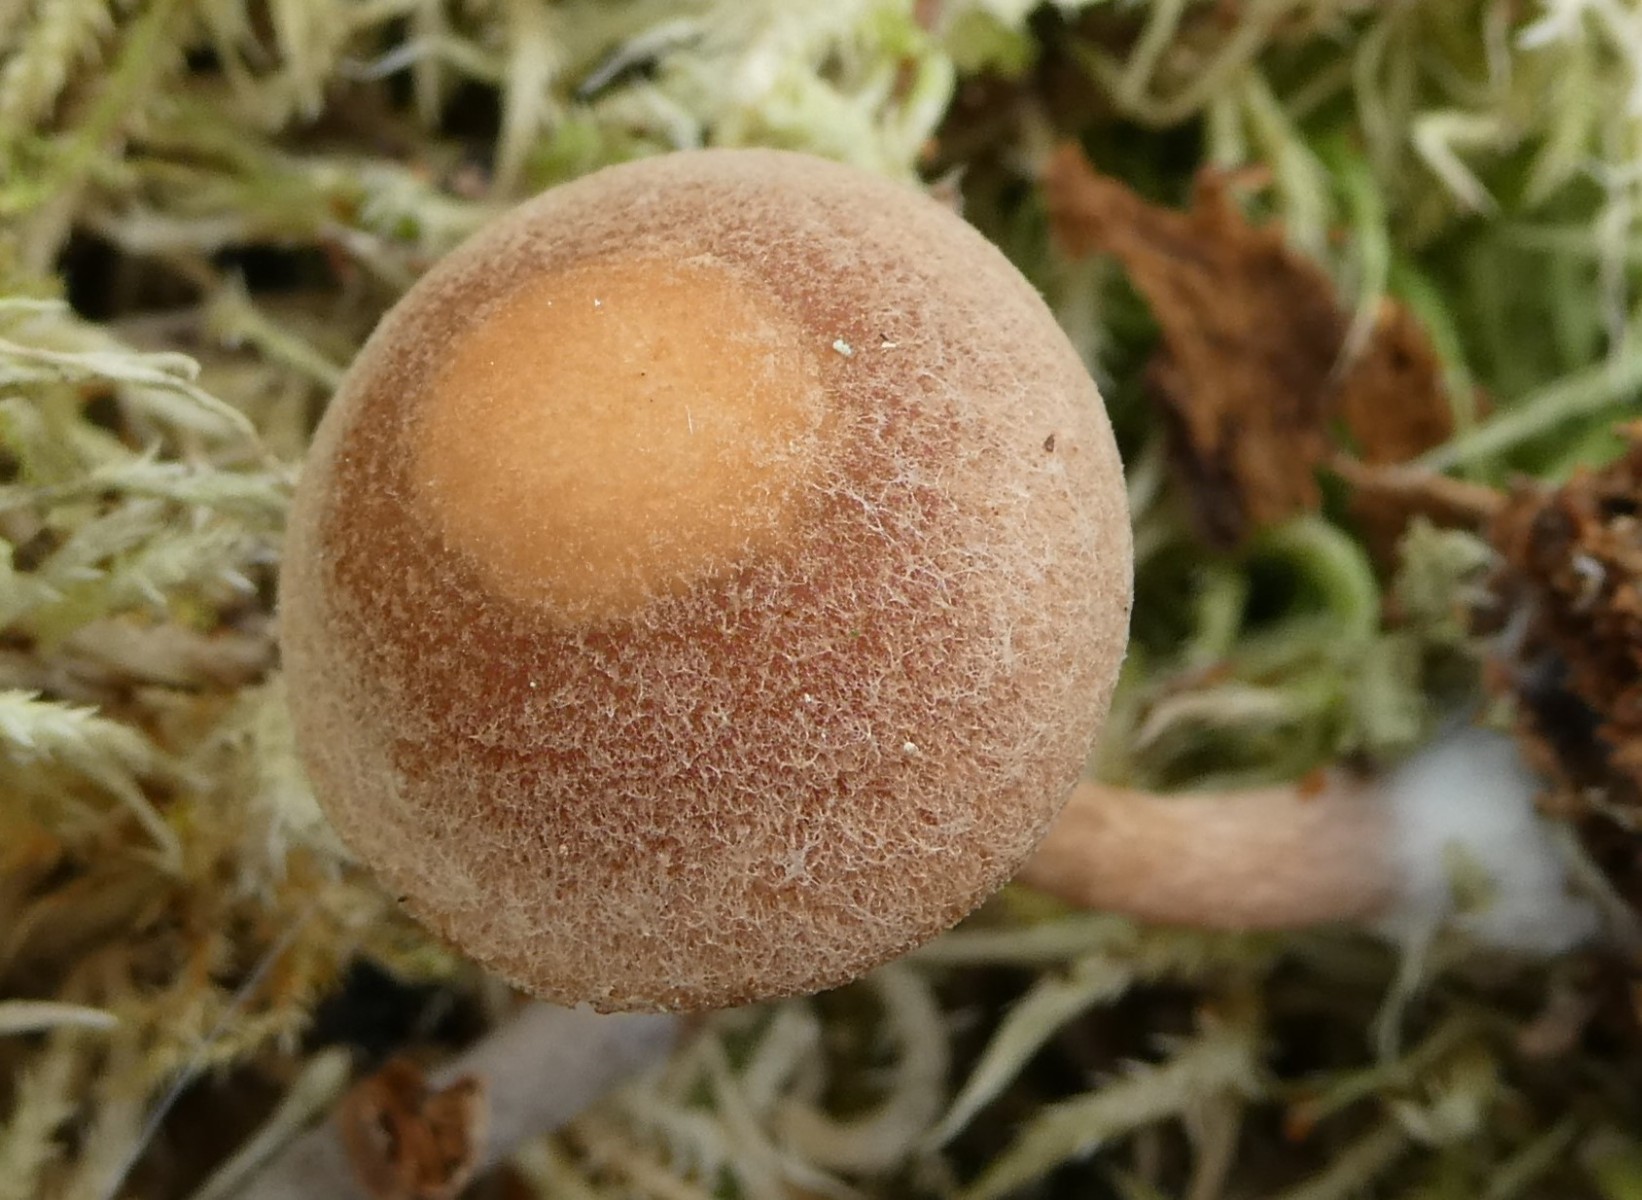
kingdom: Fungi
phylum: Basidiomycota
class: Agaricomycetes
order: Agaricales
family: Tubariaceae
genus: Tubaria
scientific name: Tubaria confragosa
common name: ring-fnughat
